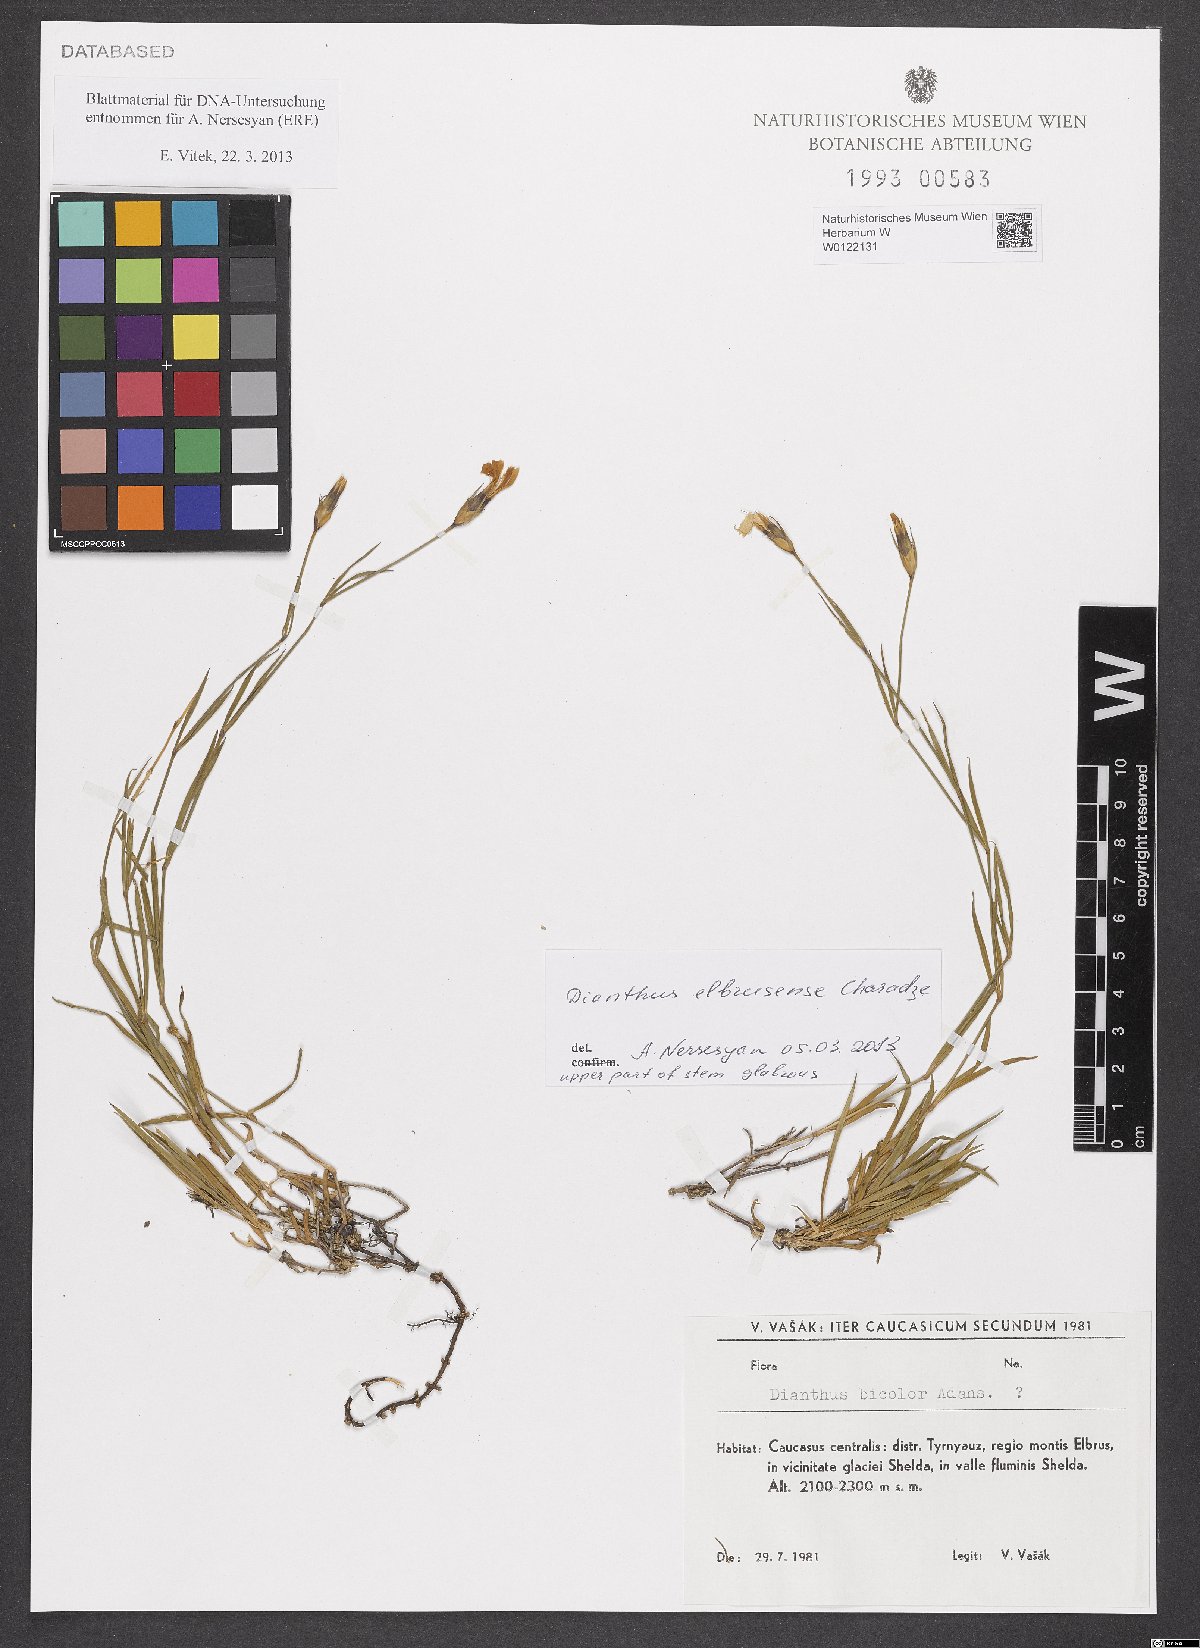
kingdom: Plantae
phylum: Tracheophyta
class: Magnoliopsida
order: Caryophyllales
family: Caryophyllaceae
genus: Dianthus
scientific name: Dianthus elbursensis
